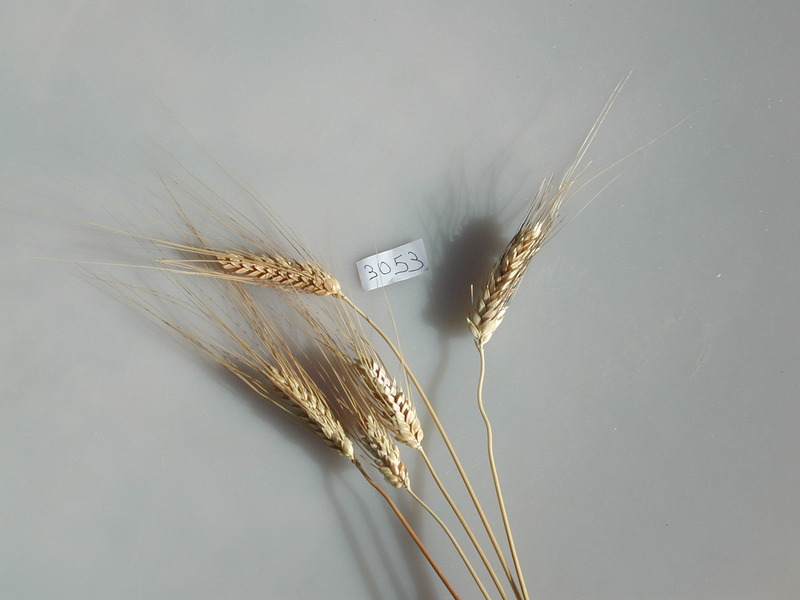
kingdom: Plantae
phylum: Tracheophyta
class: Liliopsida
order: Poales
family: Poaceae
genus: Triticum
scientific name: Triticum turgidum
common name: Wheat
